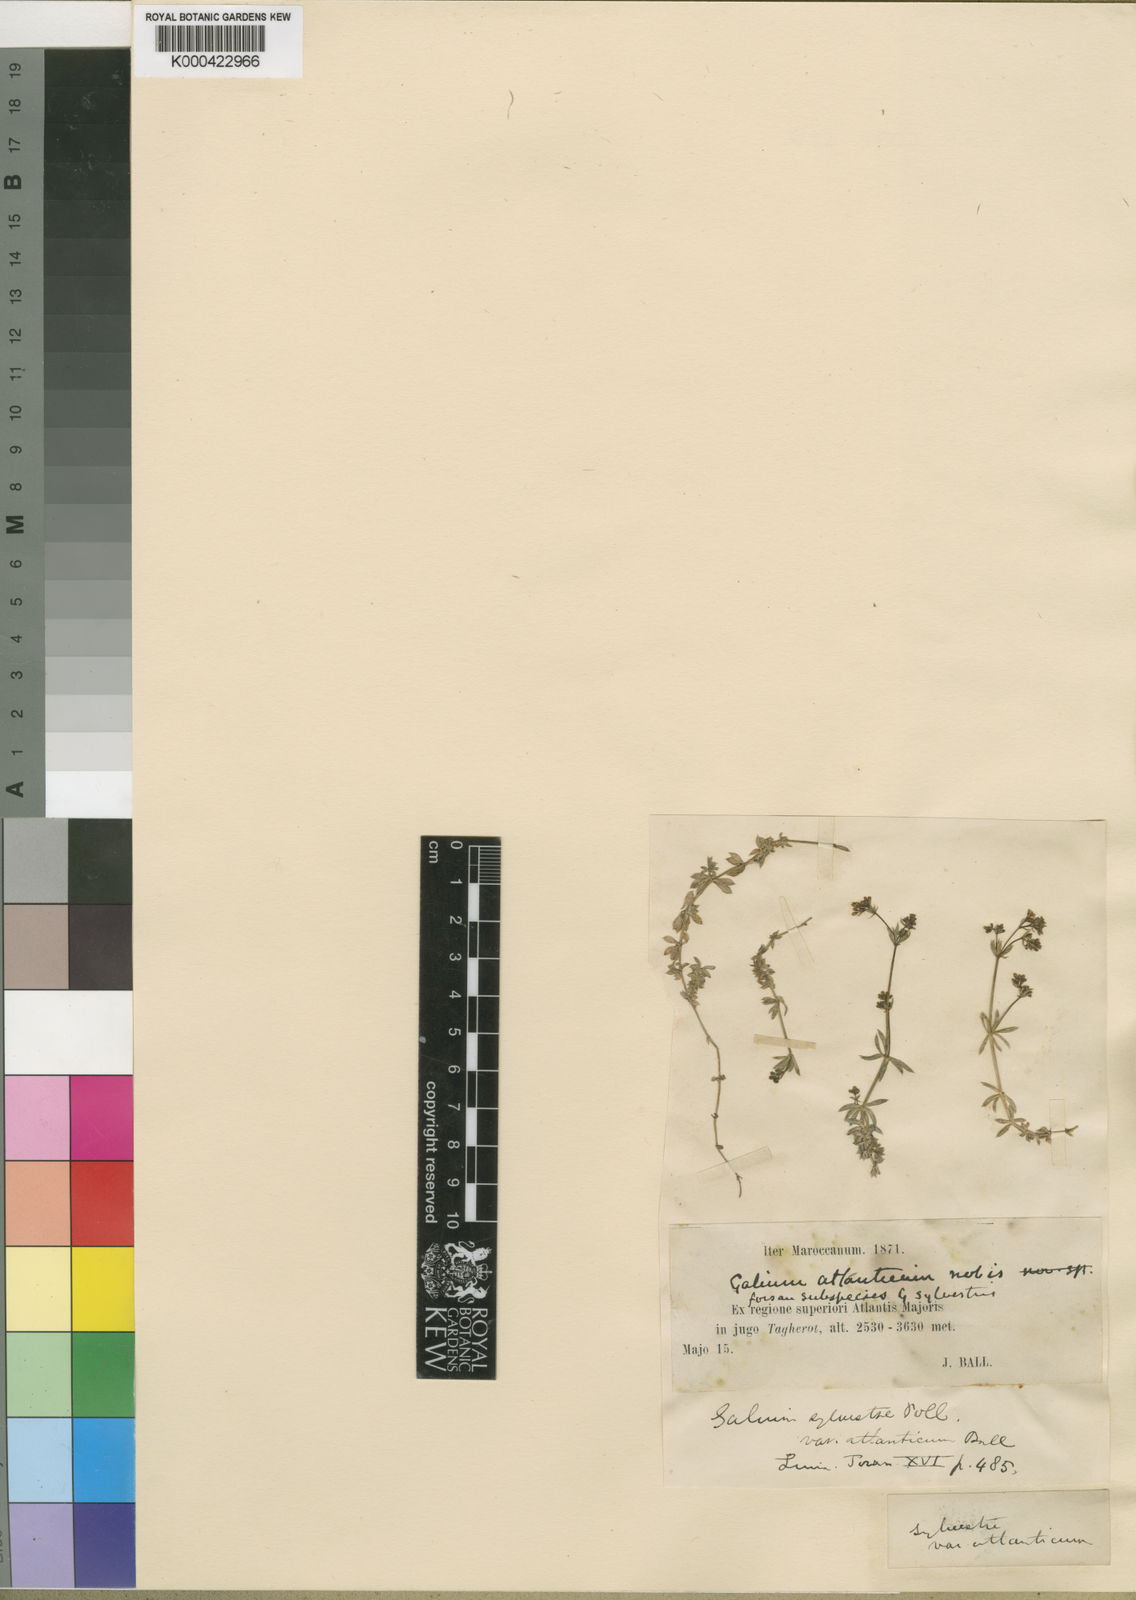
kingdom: Plantae
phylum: Tracheophyta
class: Magnoliopsida
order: Gentianales
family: Rubiaceae
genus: Galium
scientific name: Galium lucidum
